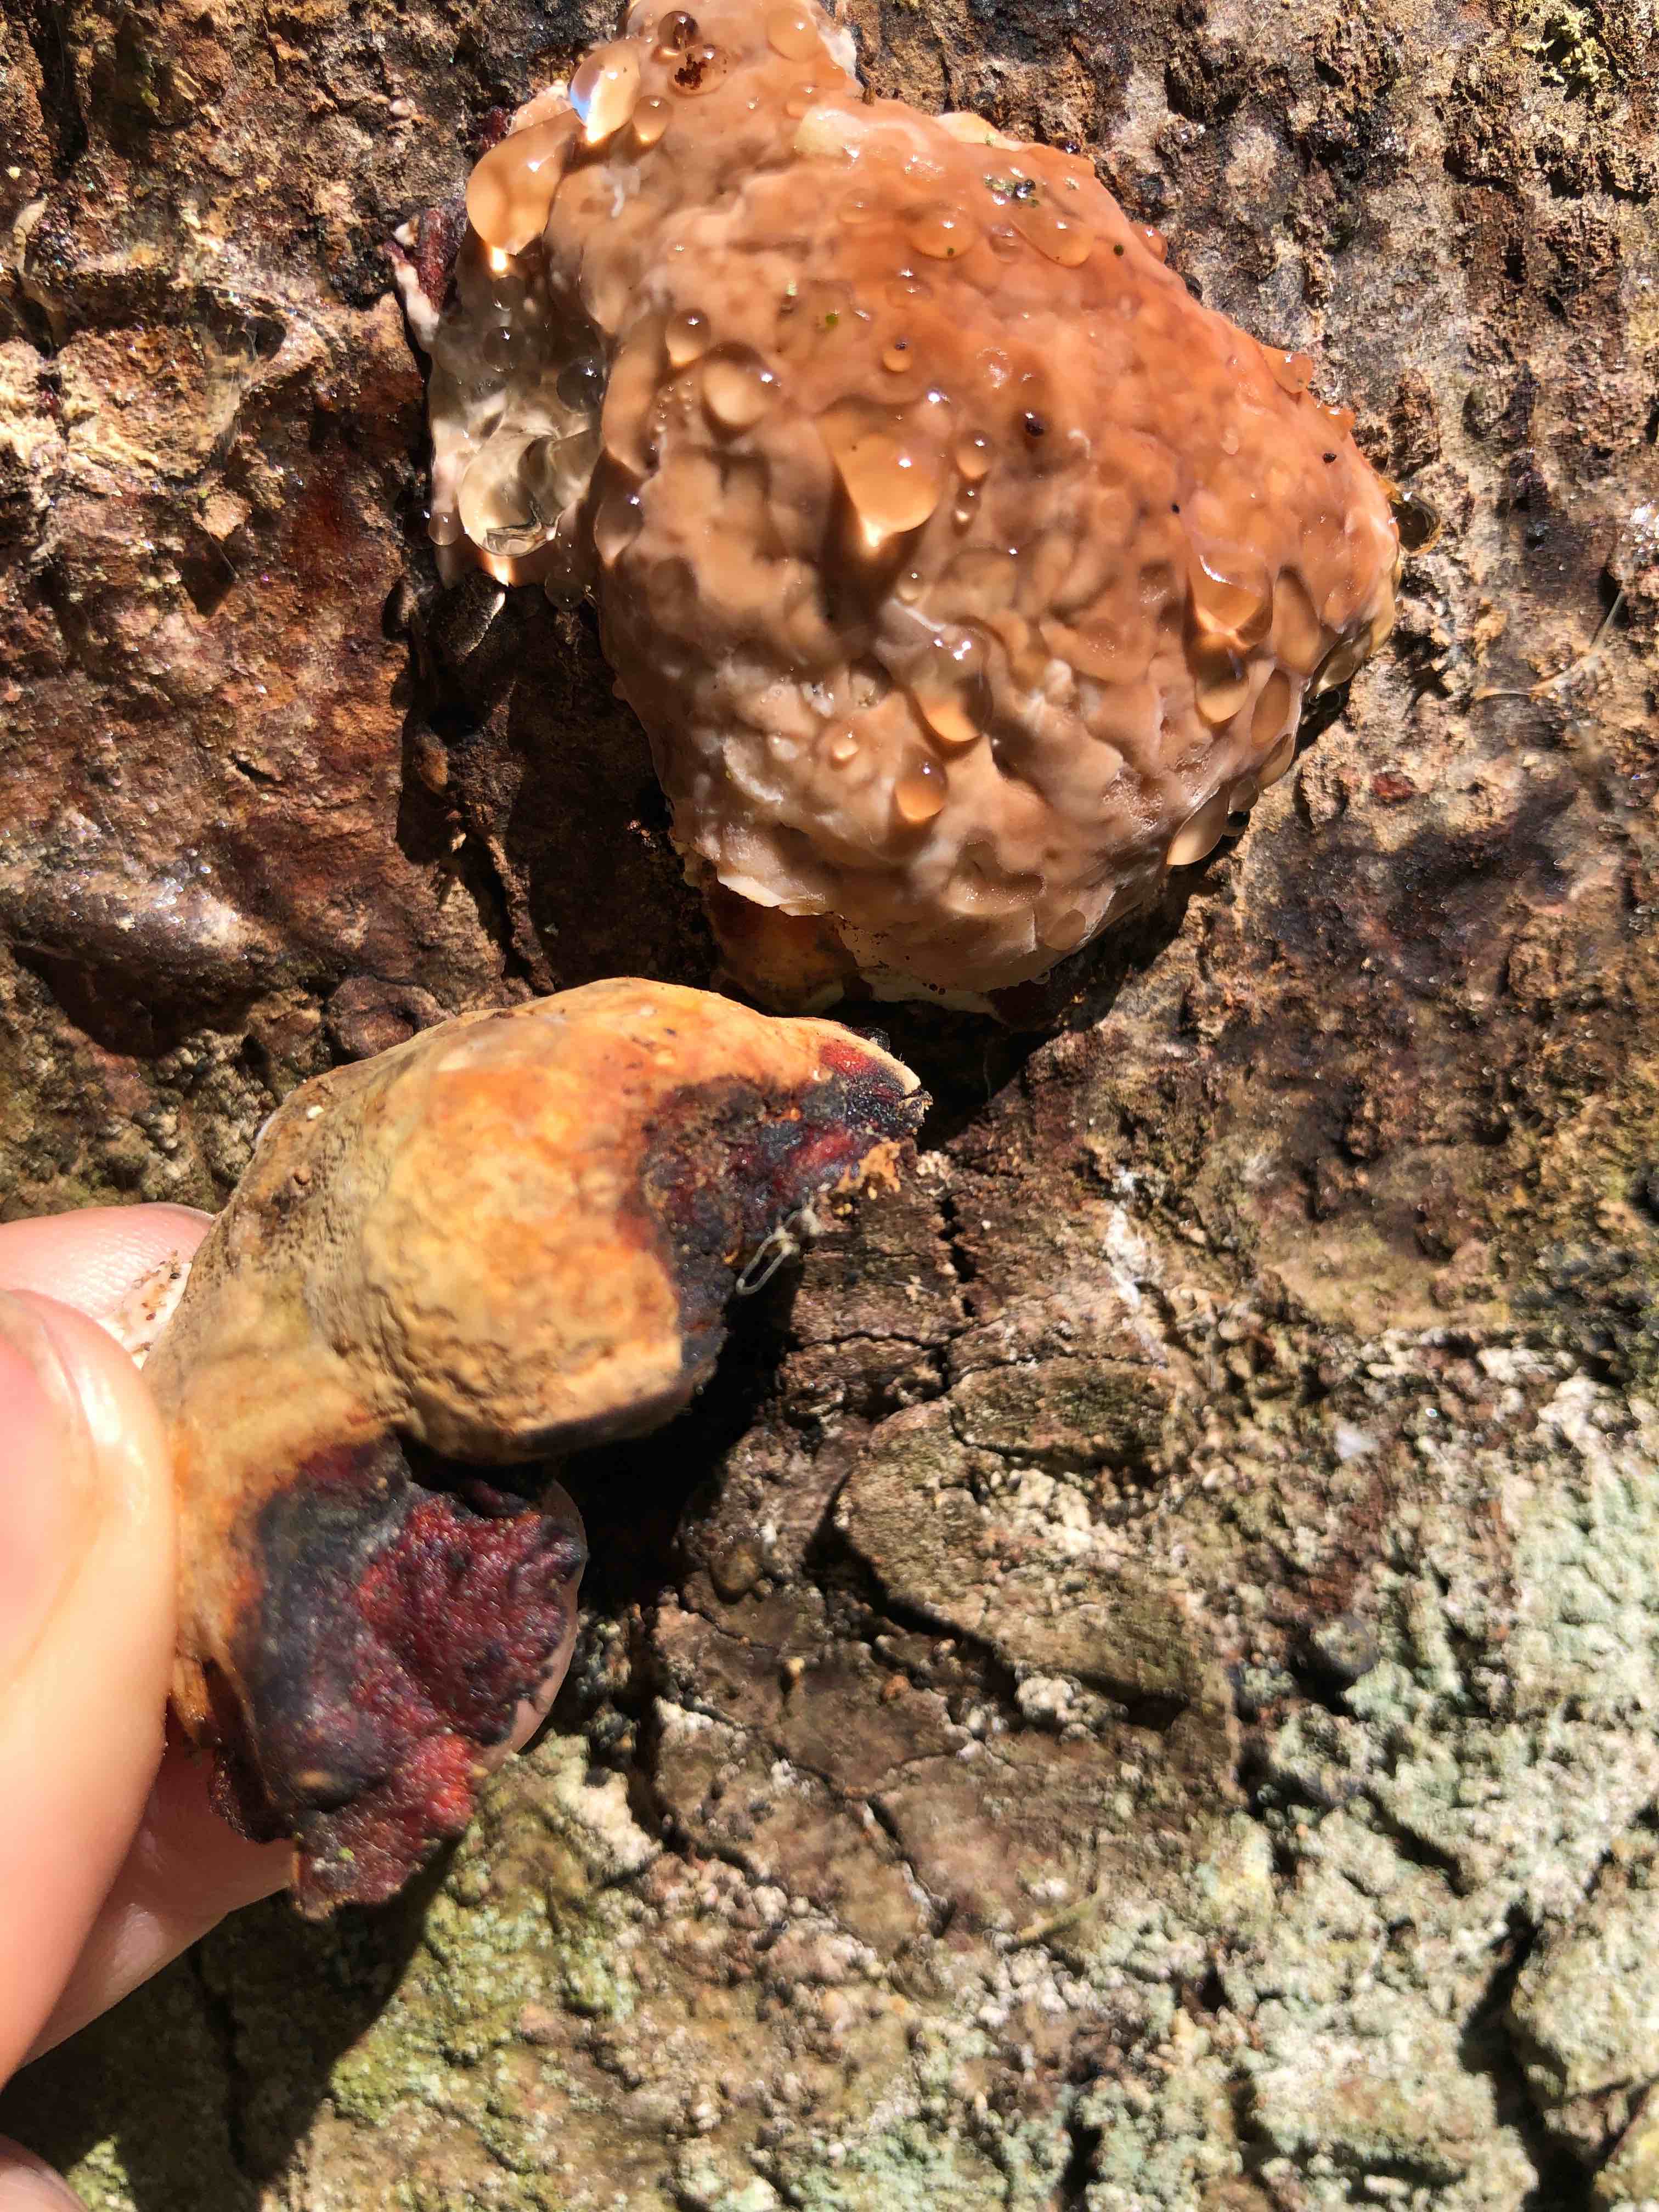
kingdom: Fungi
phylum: Basidiomycota
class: Agaricomycetes
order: Polyporales
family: Fomitopsidaceae
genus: Fomitopsis
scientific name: Fomitopsis pinicola
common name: randbæltet hovporesvamp
